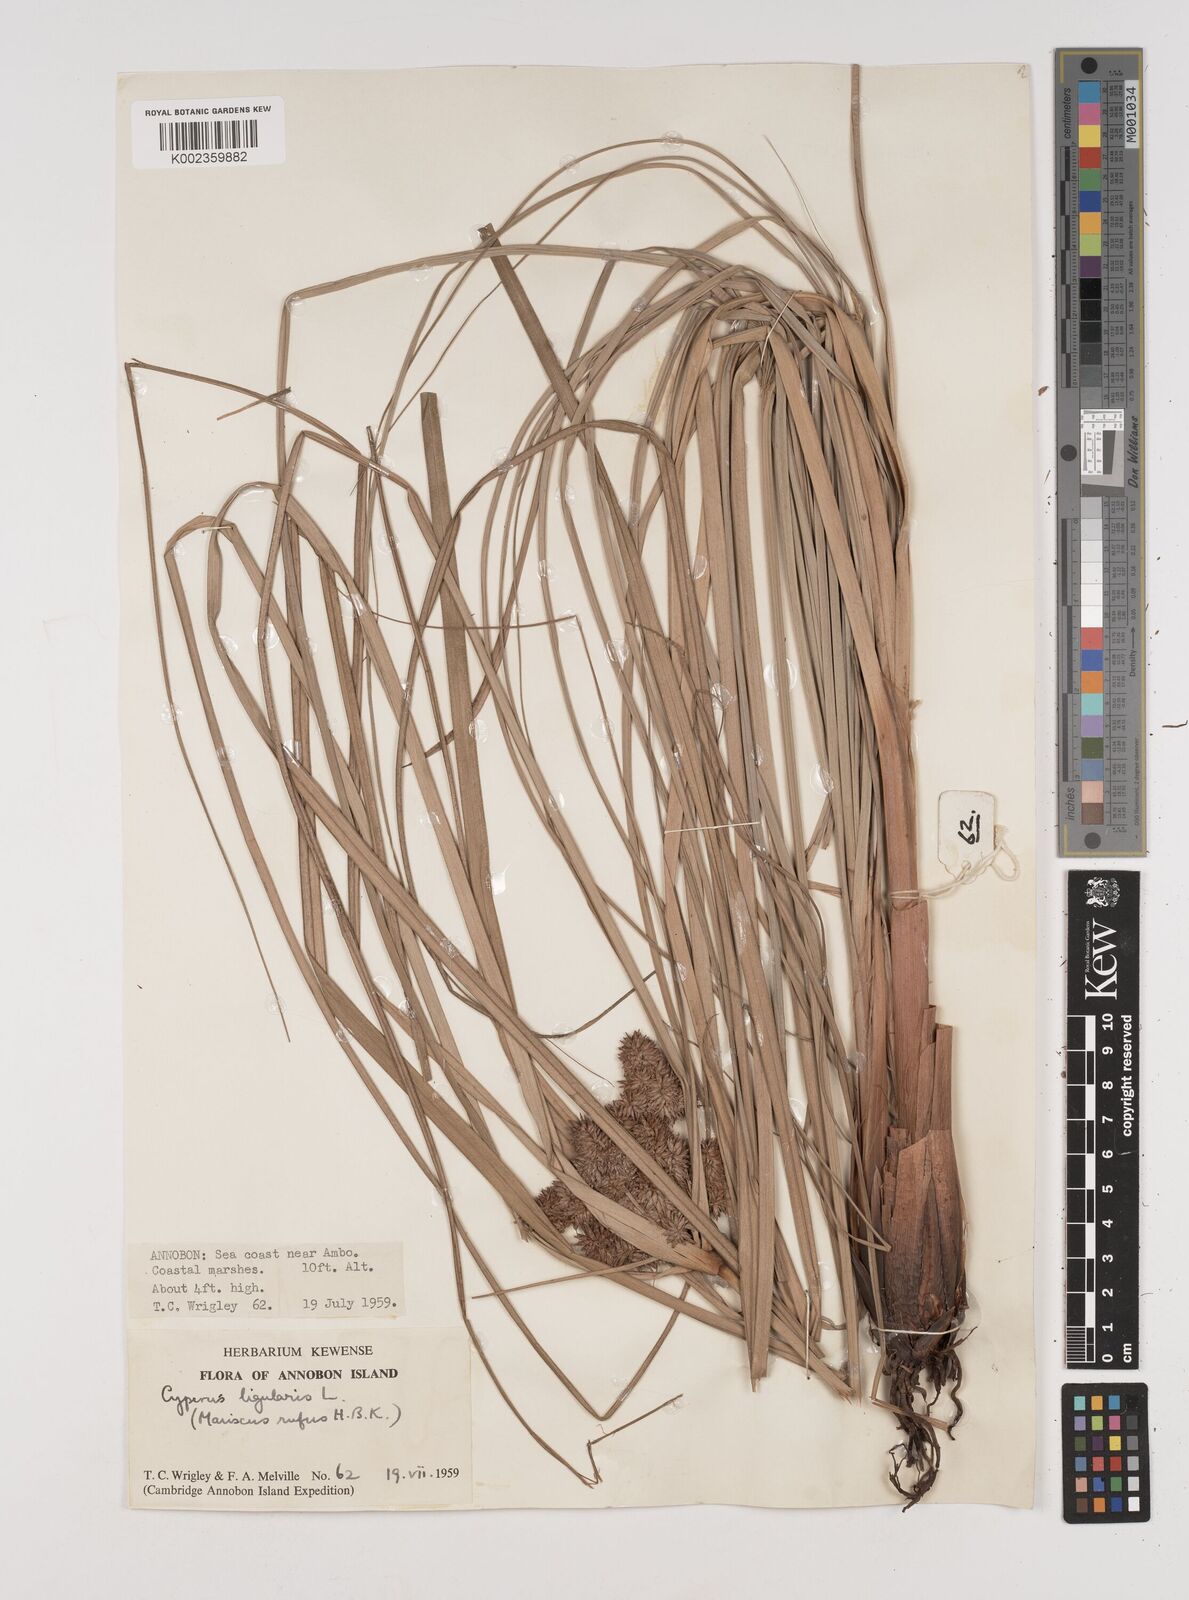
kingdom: Plantae
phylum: Tracheophyta
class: Liliopsida
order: Poales
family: Cyperaceae
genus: Cyperus
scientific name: Cyperus ligularis
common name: Swamp flat sedge
